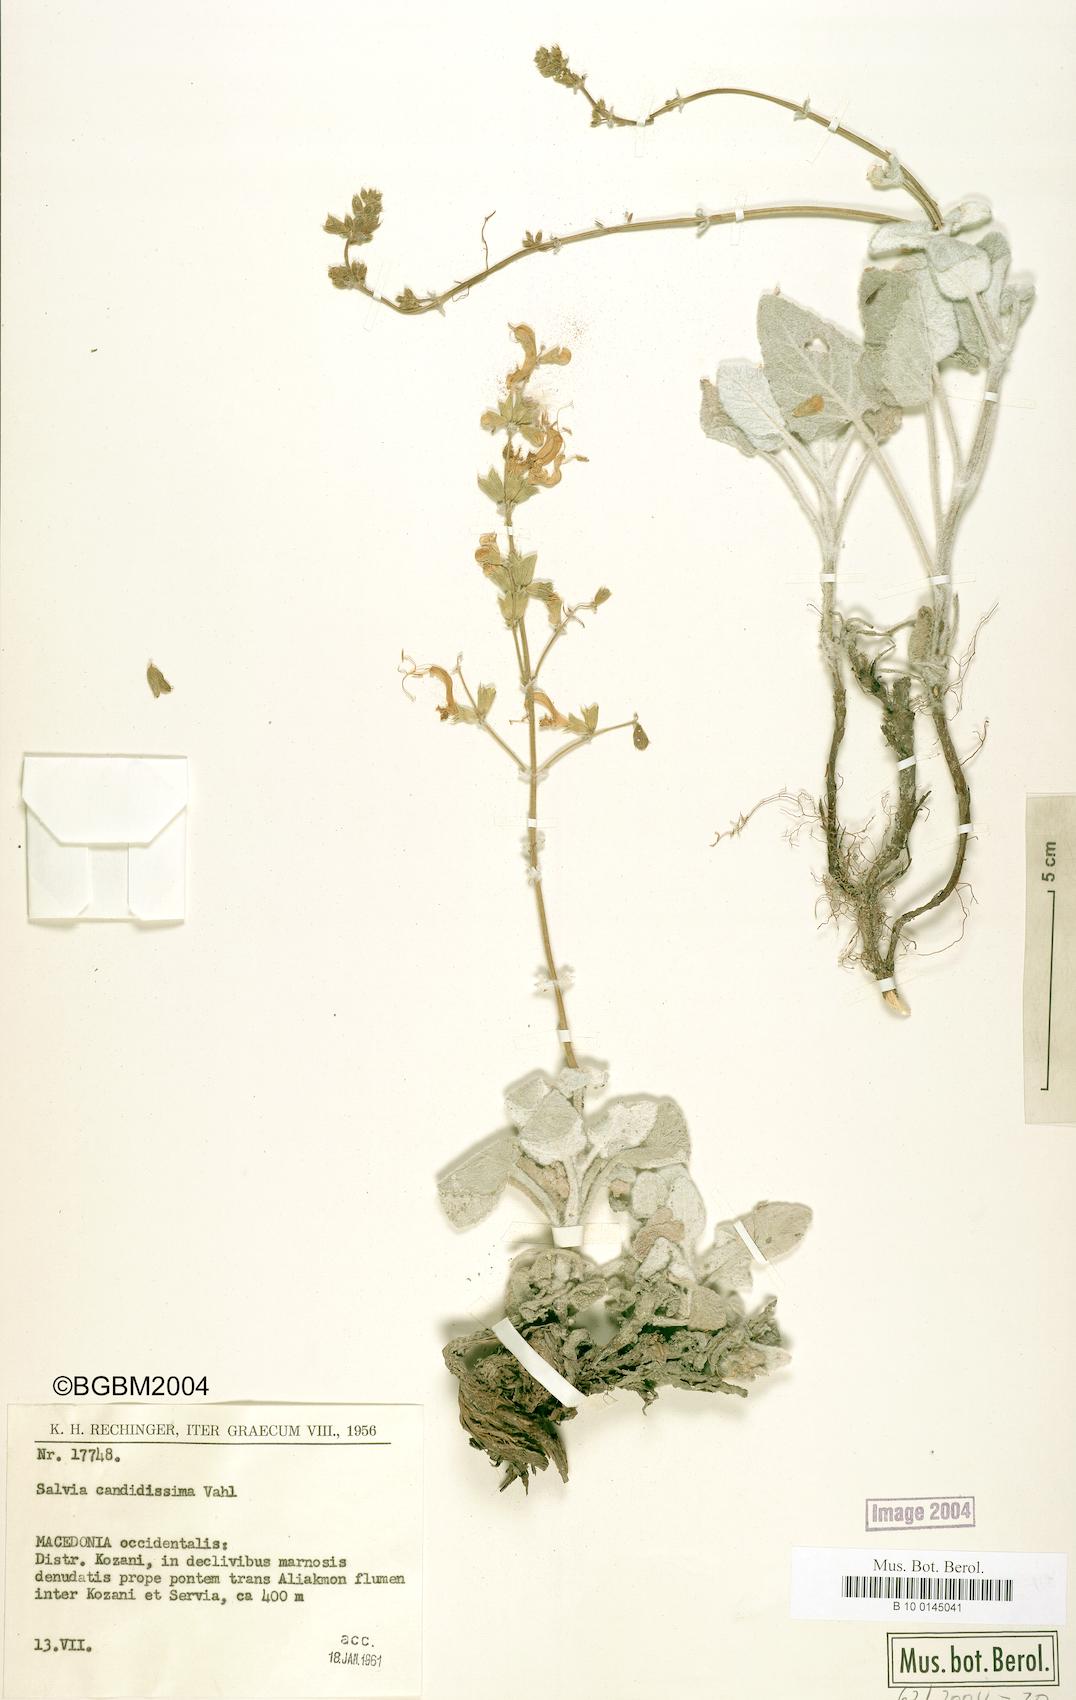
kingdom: Plantae
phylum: Tracheophyta
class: Magnoliopsida
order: Lamiales
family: Lamiaceae
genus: Salvia
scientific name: Salvia candidissima
